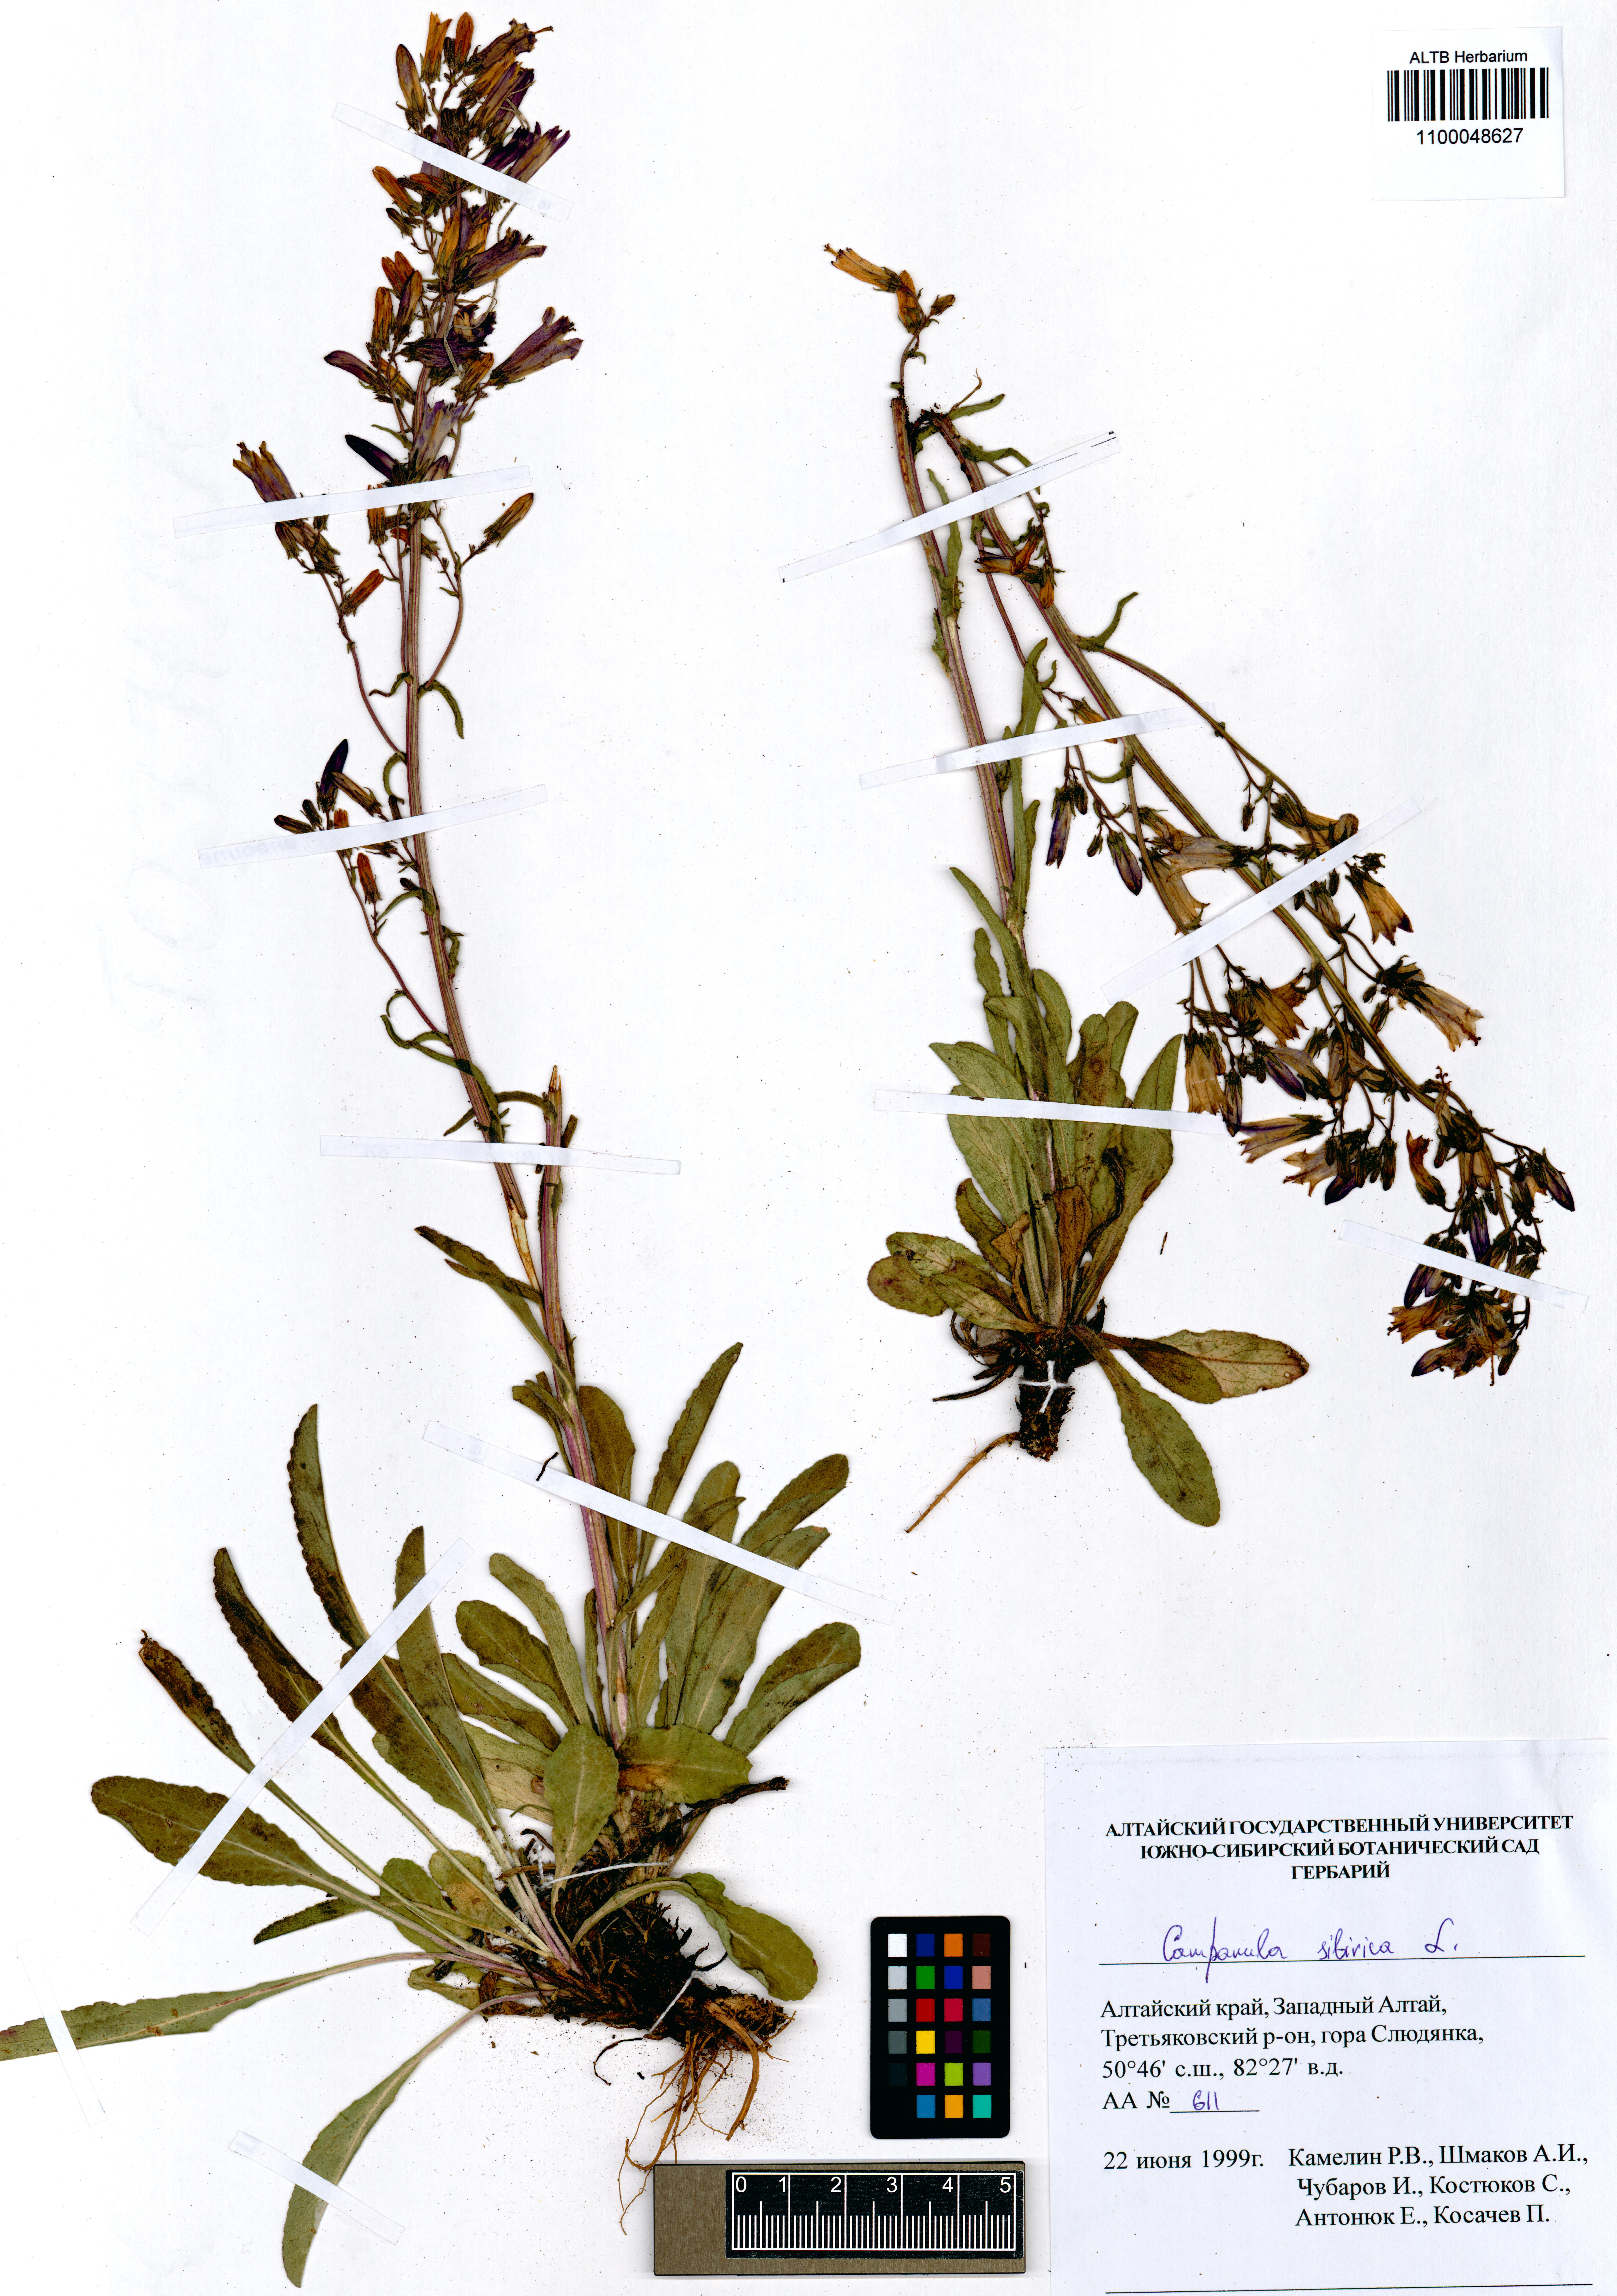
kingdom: Plantae
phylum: Tracheophyta
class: Magnoliopsida
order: Asterales
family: Campanulaceae
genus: Campanula
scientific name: Campanula sibirica
